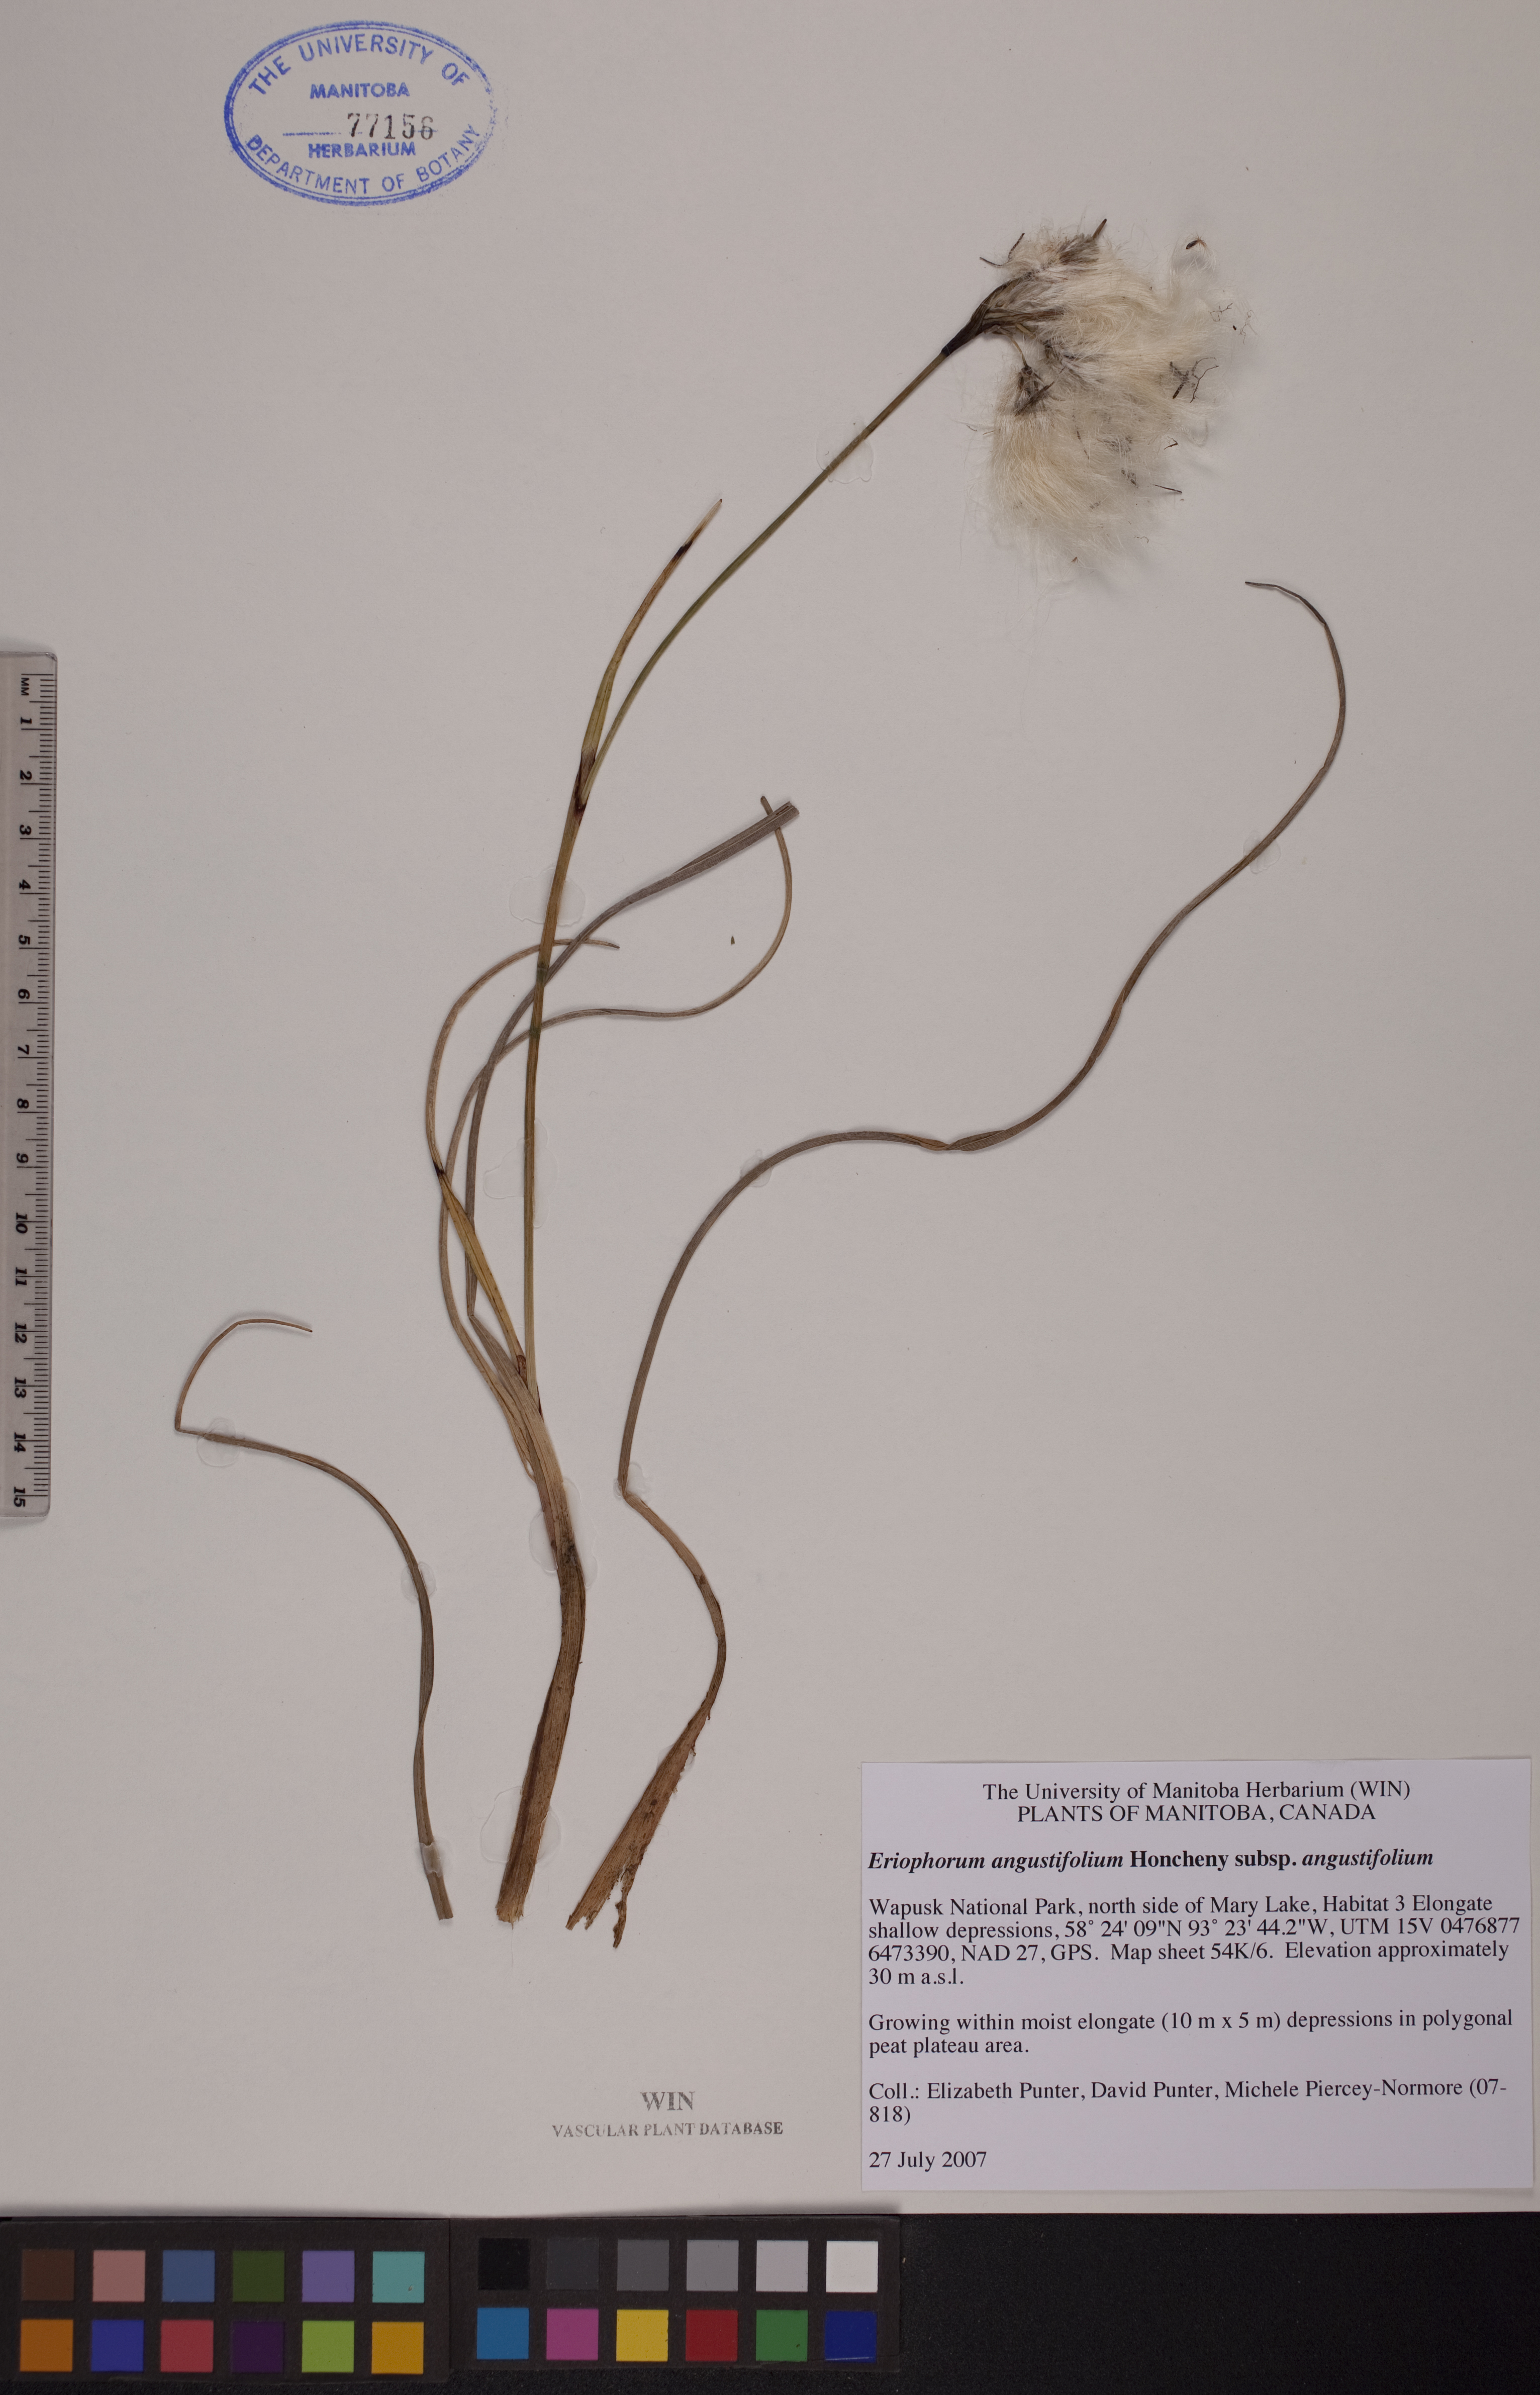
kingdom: Plantae
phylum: Tracheophyta
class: Liliopsida
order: Poales
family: Cyperaceae
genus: Eriophorum
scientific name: Eriophorum angustifolium
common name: Common cottongrass
